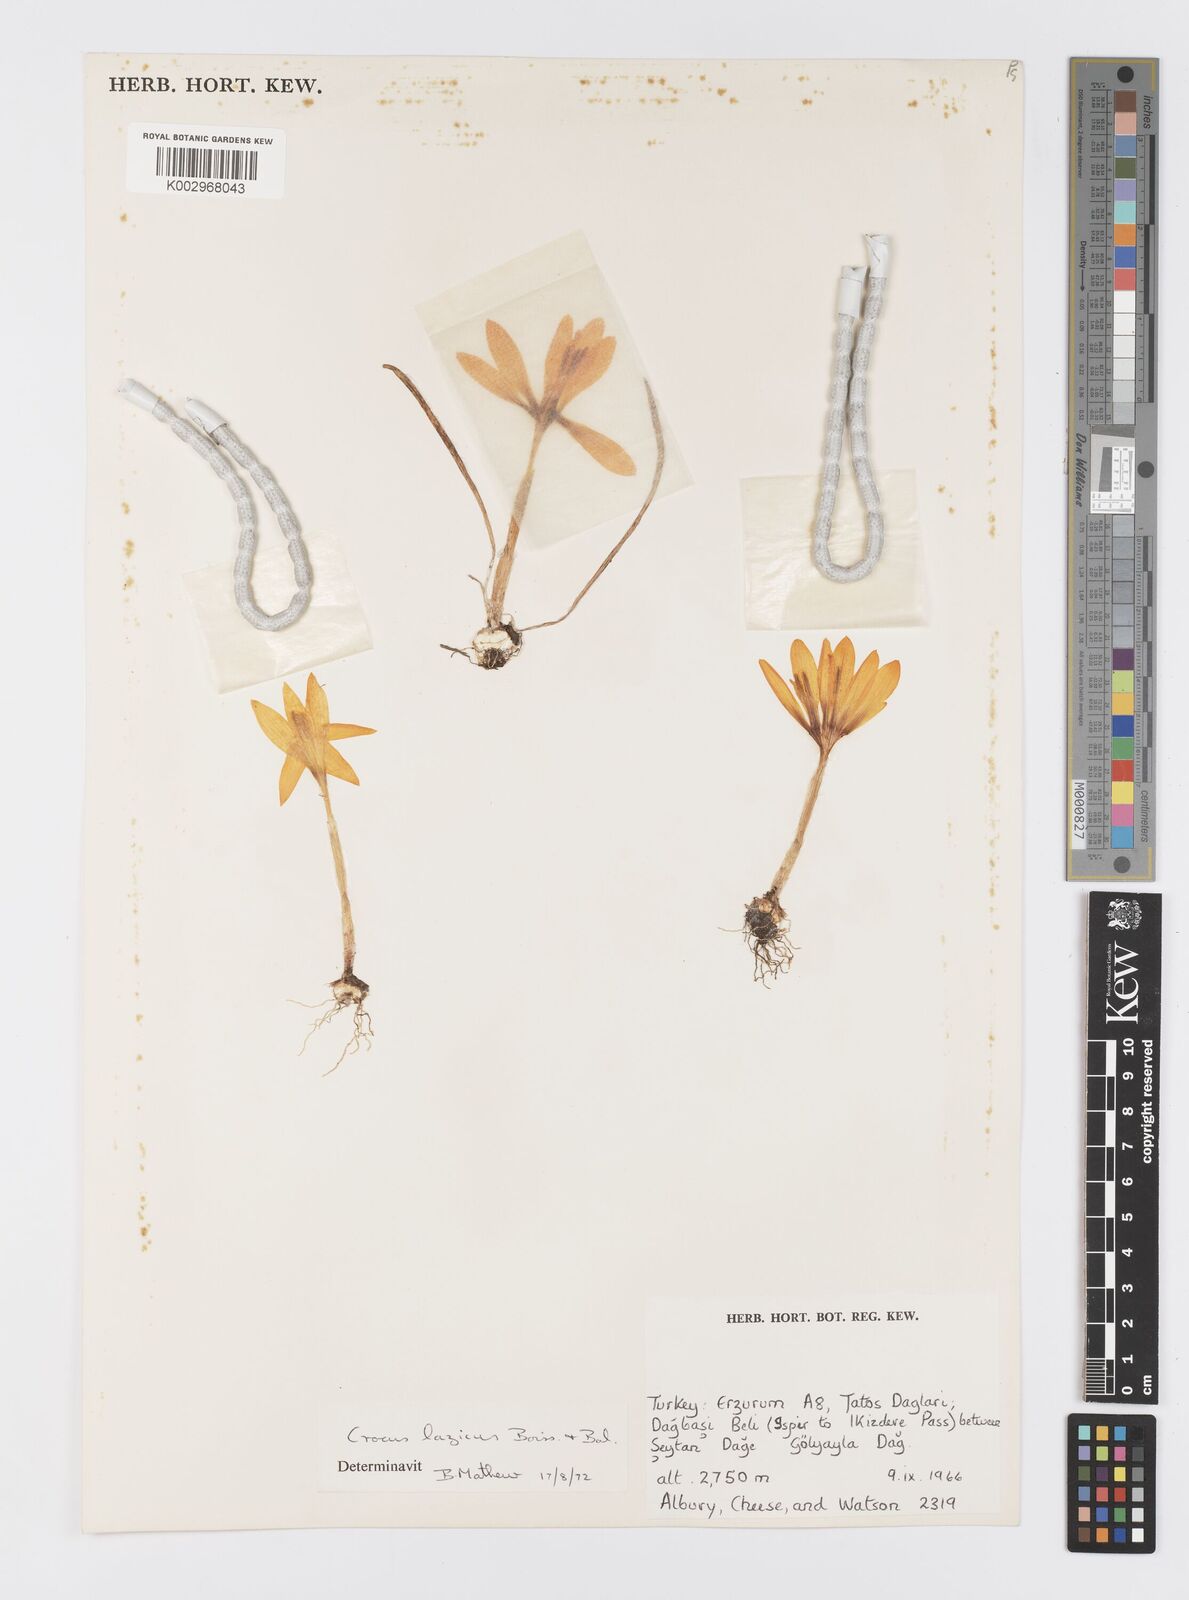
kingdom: Plantae
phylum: Tracheophyta
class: Liliopsida
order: Asparagales
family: Iridaceae
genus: Crocus
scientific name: Crocus lazicus
